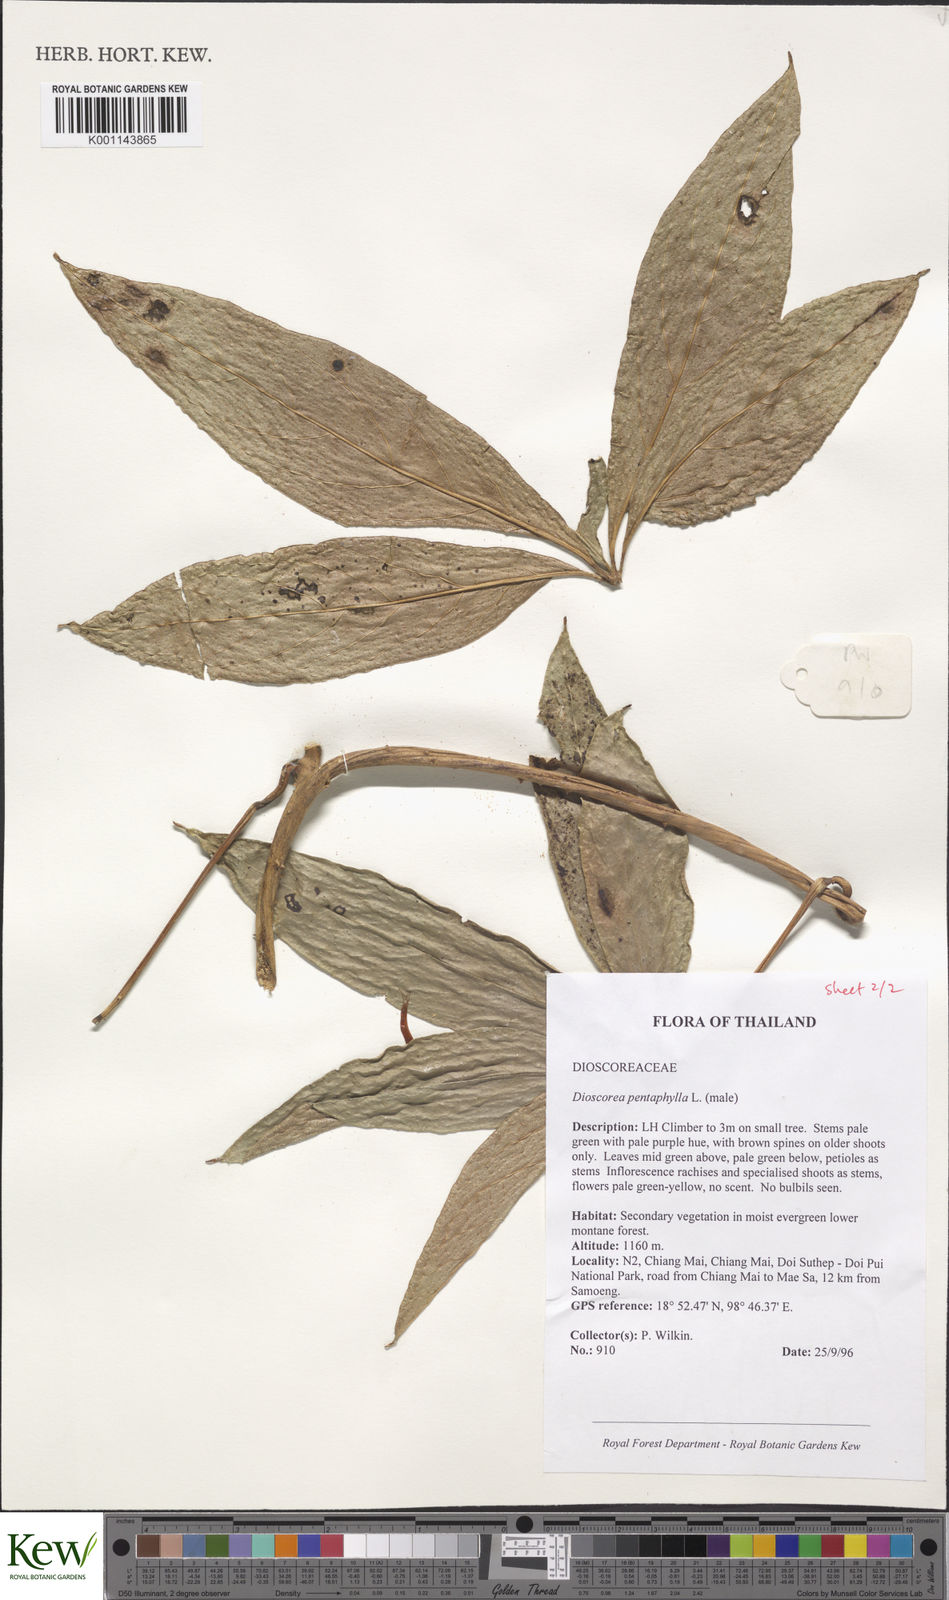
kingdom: Plantae
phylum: Tracheophyta
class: Liliopsida
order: Dioscoreales
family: Dioscoreaceae
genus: Dioscorea
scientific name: Dioscorea pentaphylla
